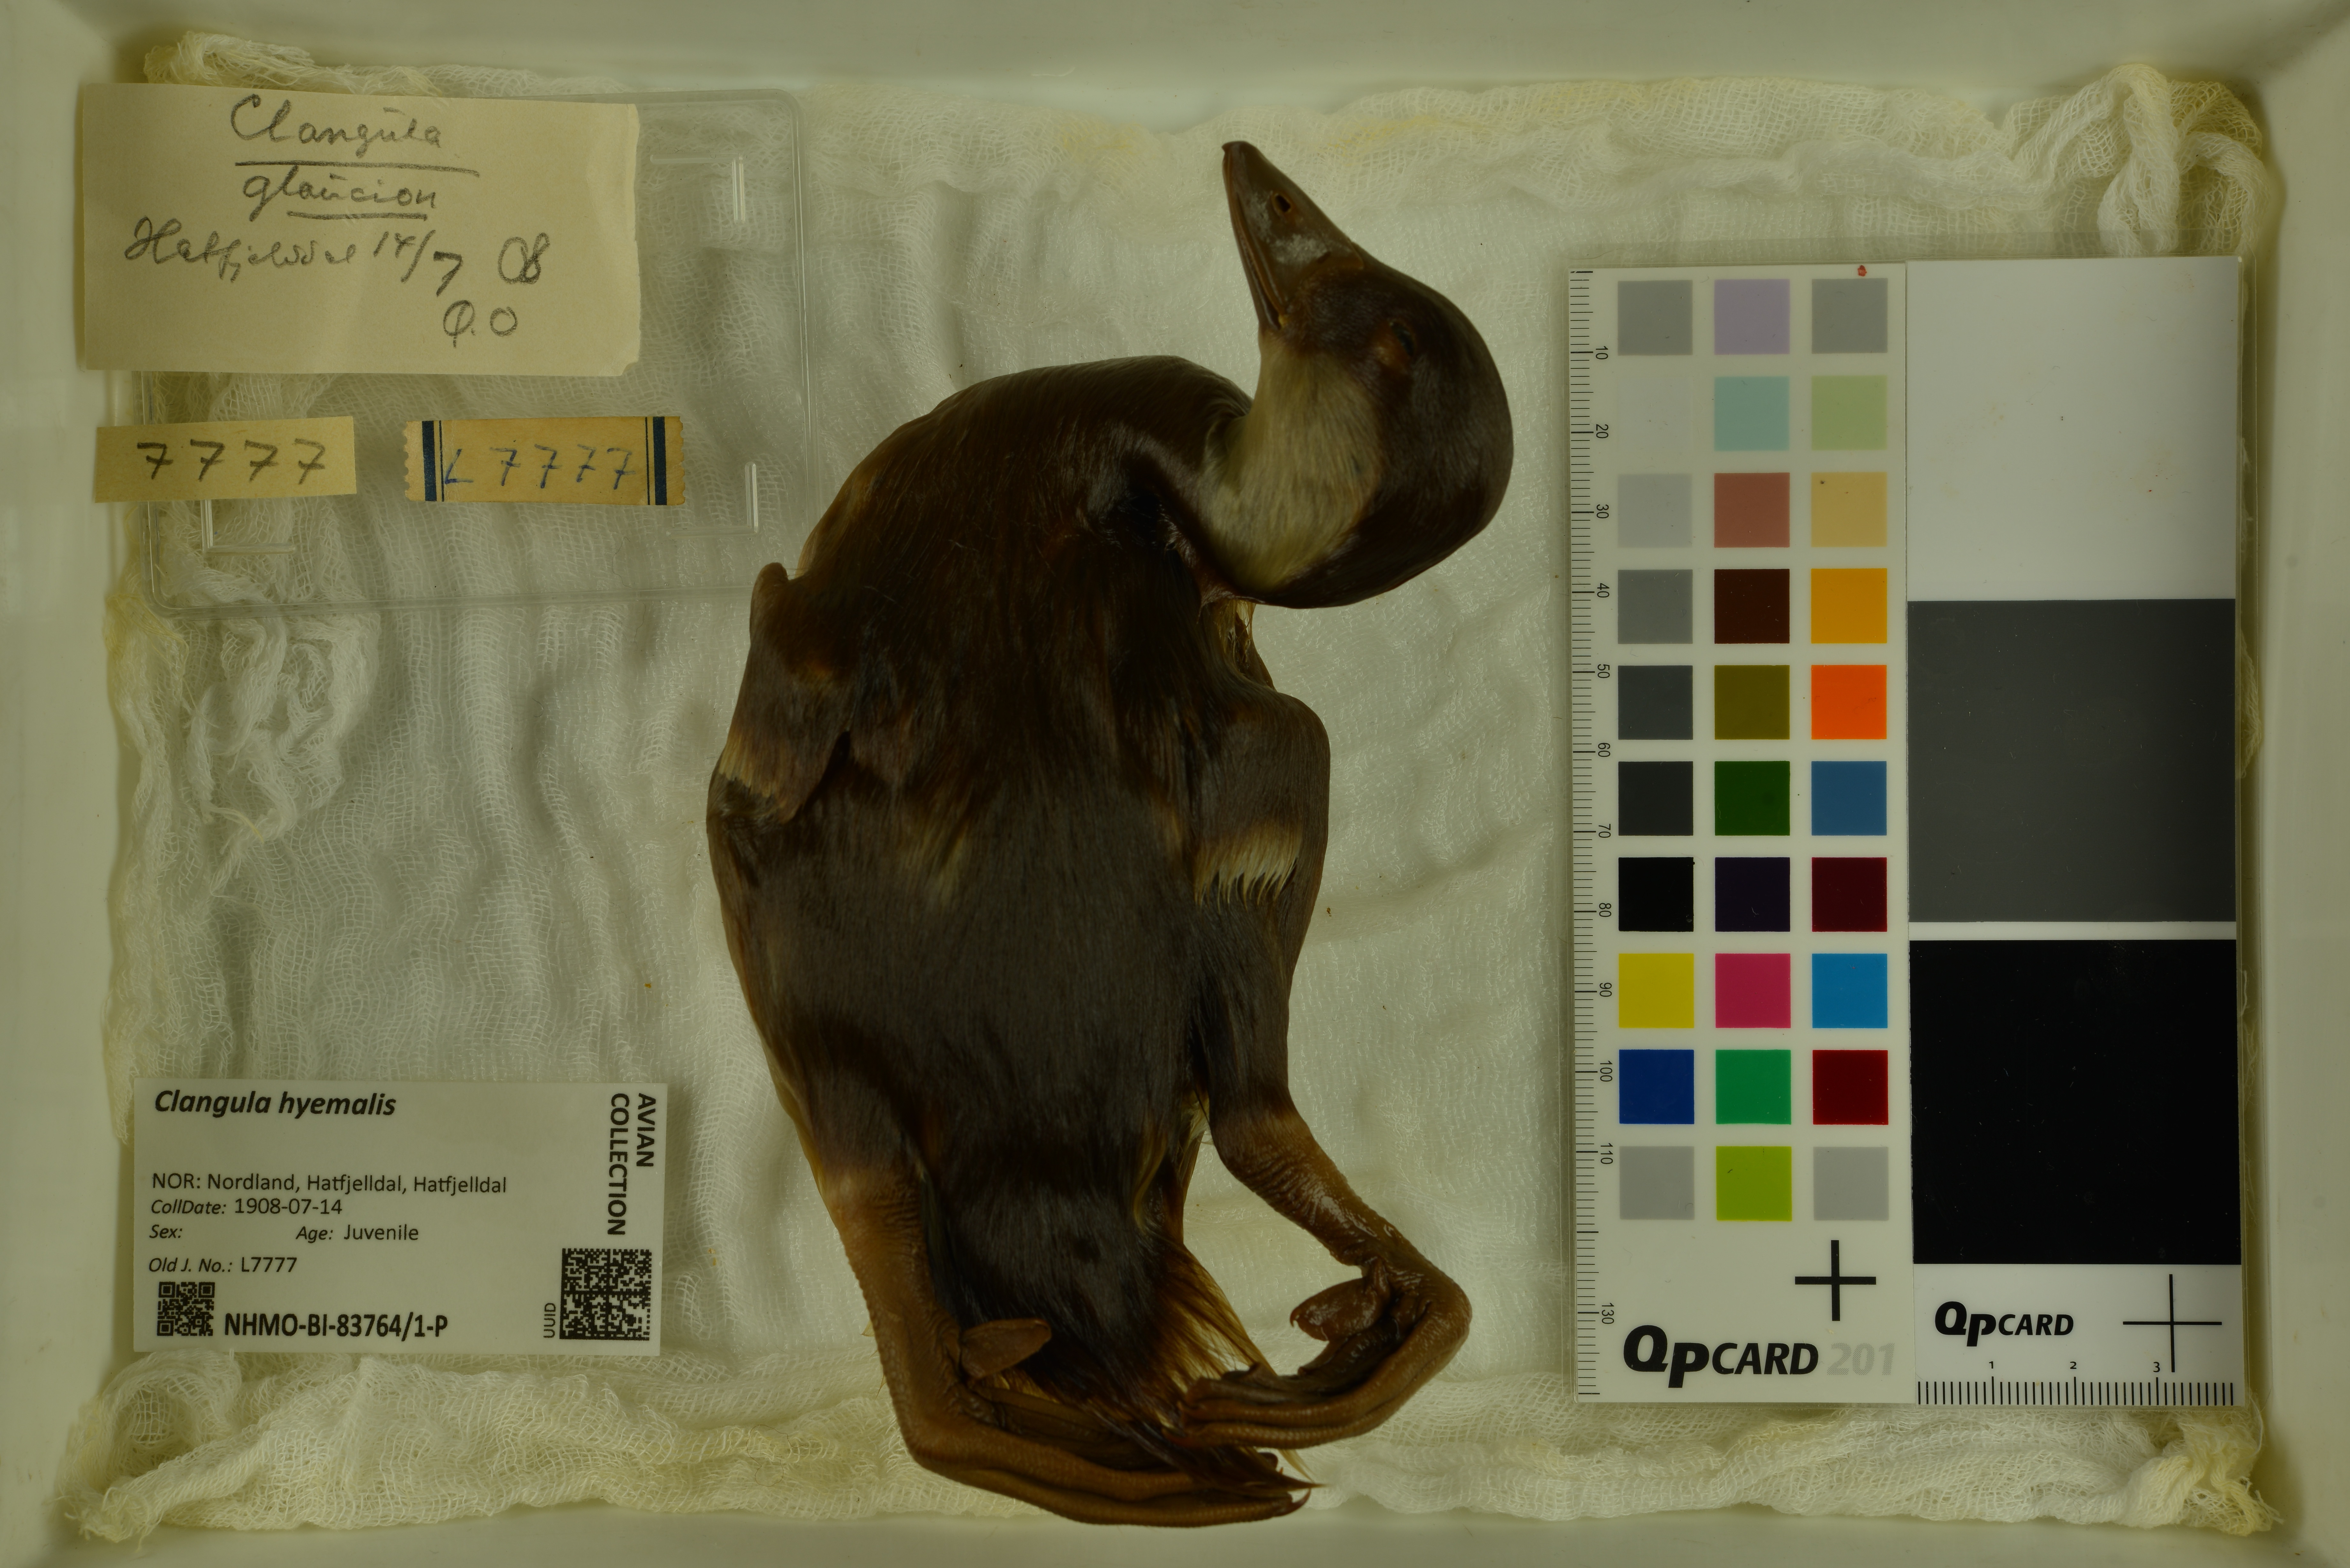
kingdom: Animalia
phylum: Chordata
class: Aves
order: Anseriformes
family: Anatidae
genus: Clangula
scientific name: Clangula hyemalis
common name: Long-tailed duck
